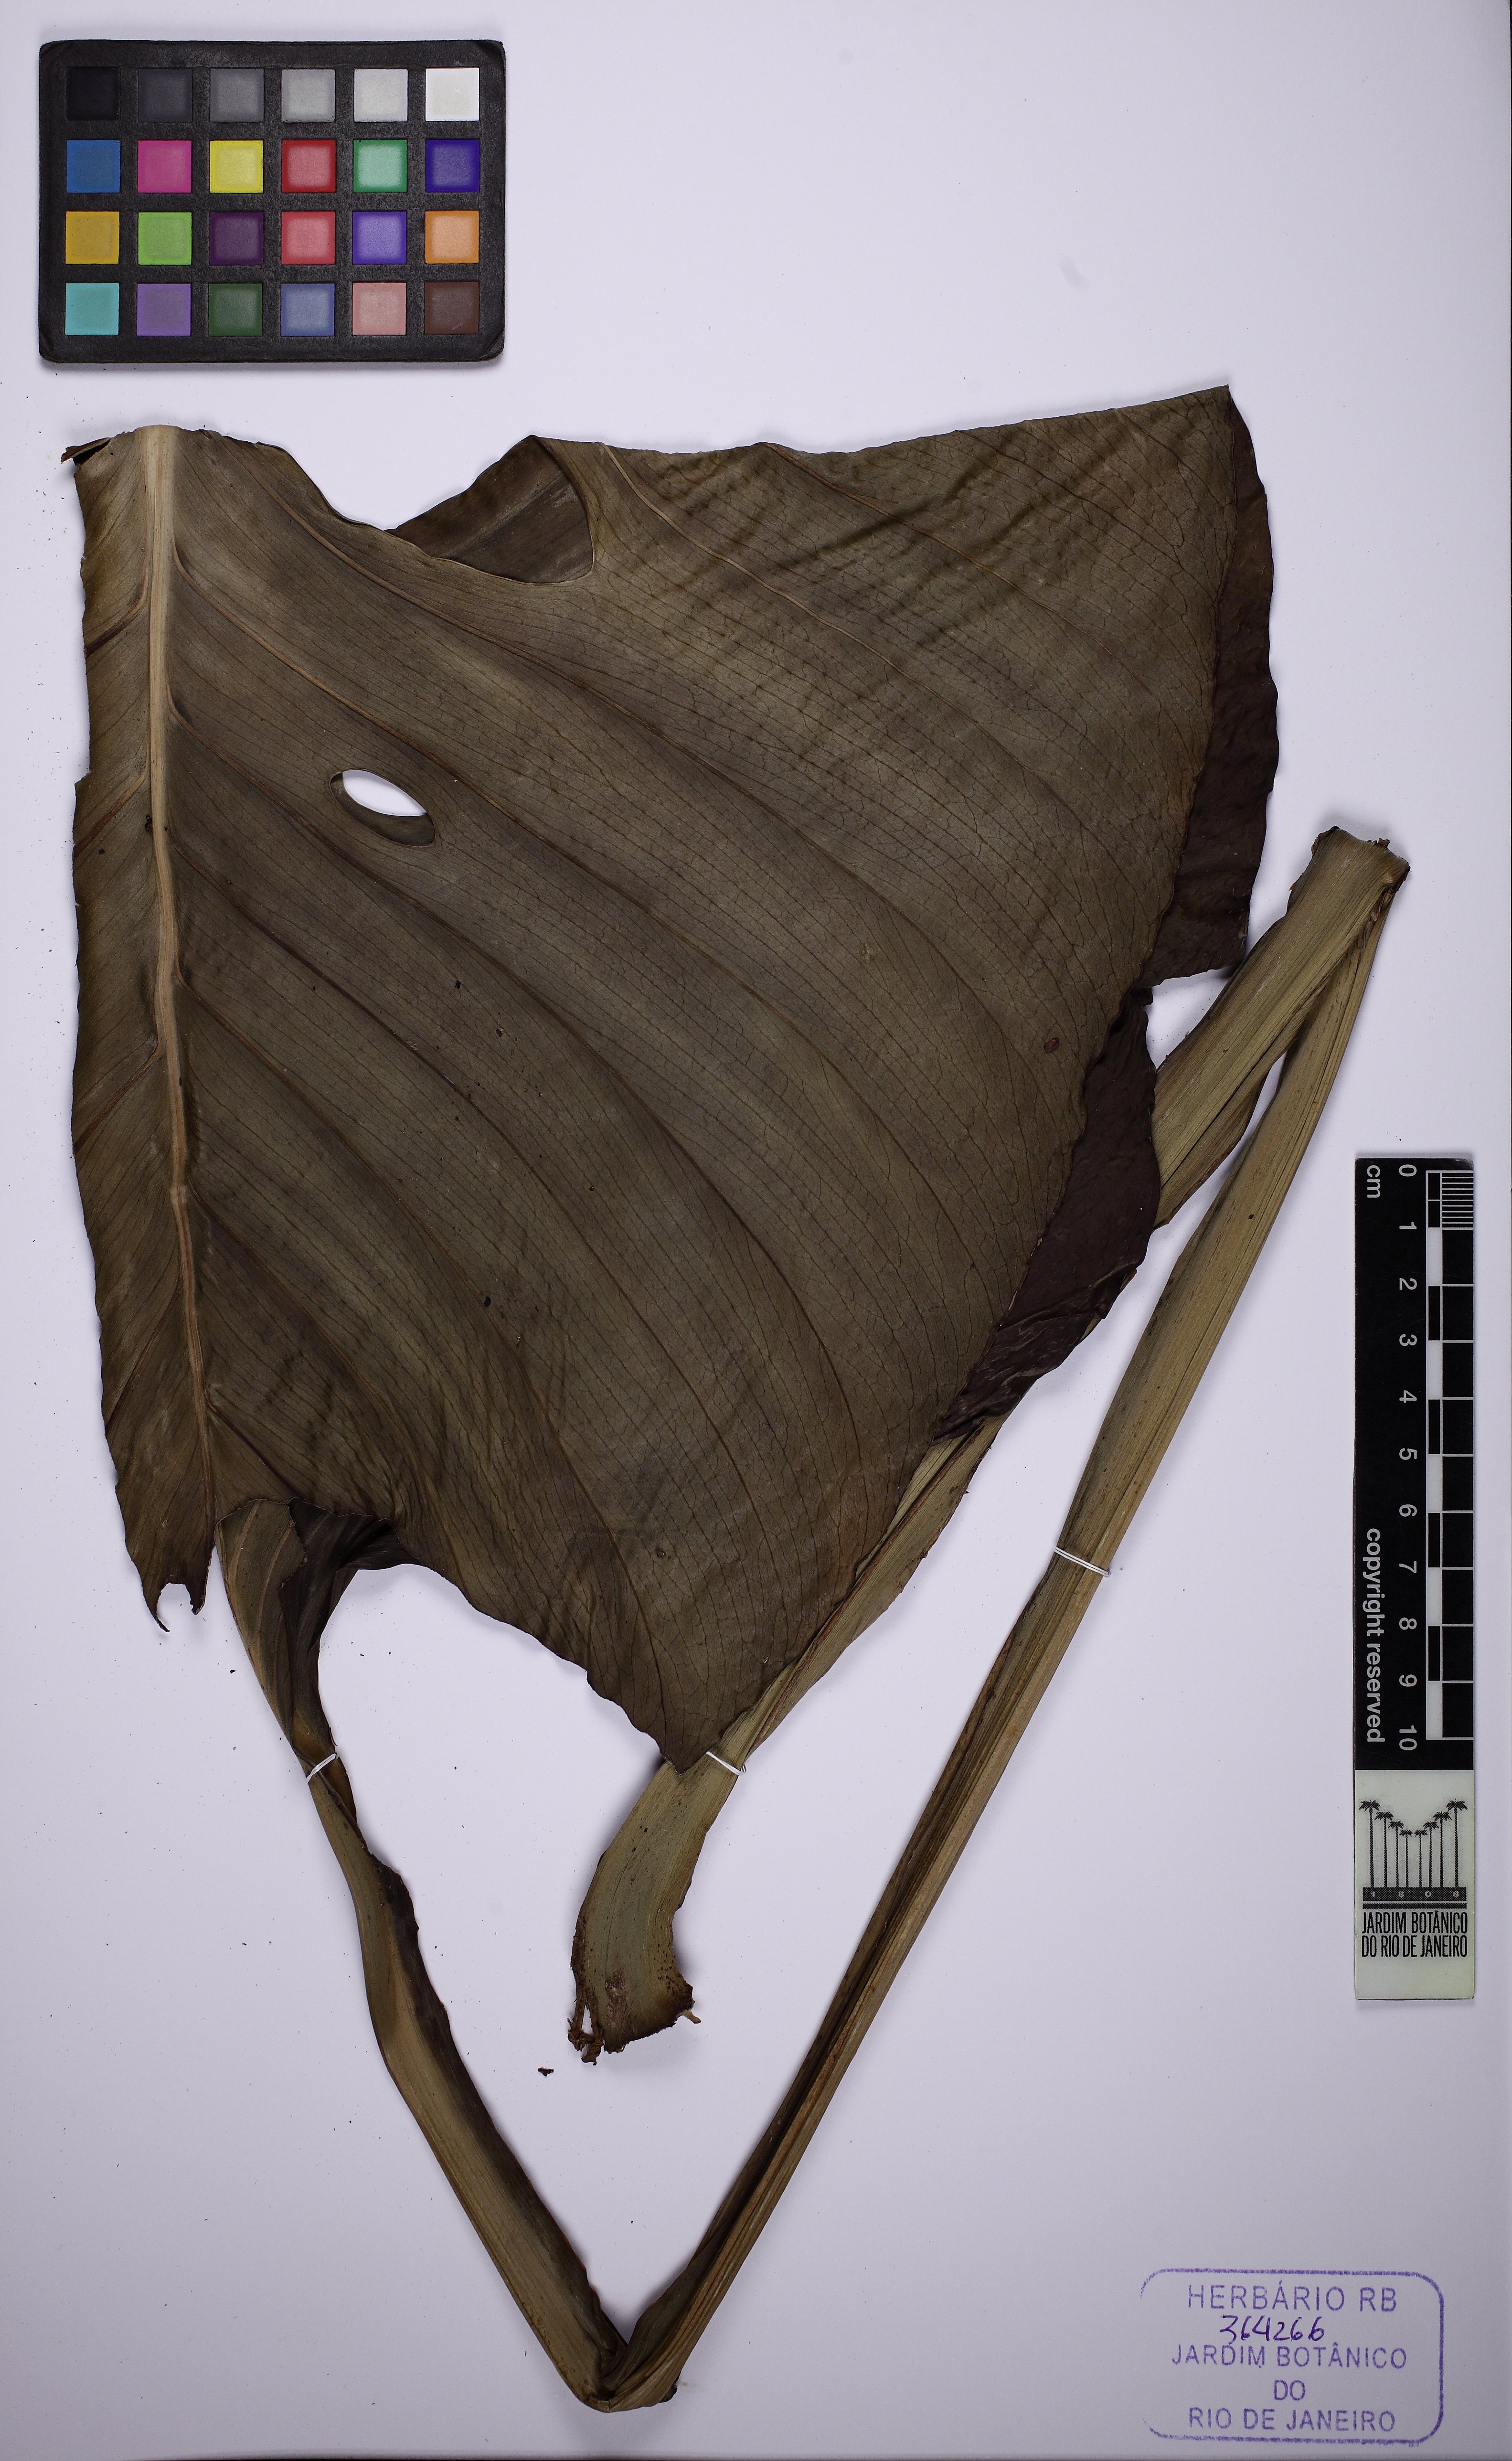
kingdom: Plantae
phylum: Tracheophyta
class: Liliopsida
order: Alismatales
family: Araceae
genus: Monstera
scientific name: Monstera adansonii
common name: Tarovine
